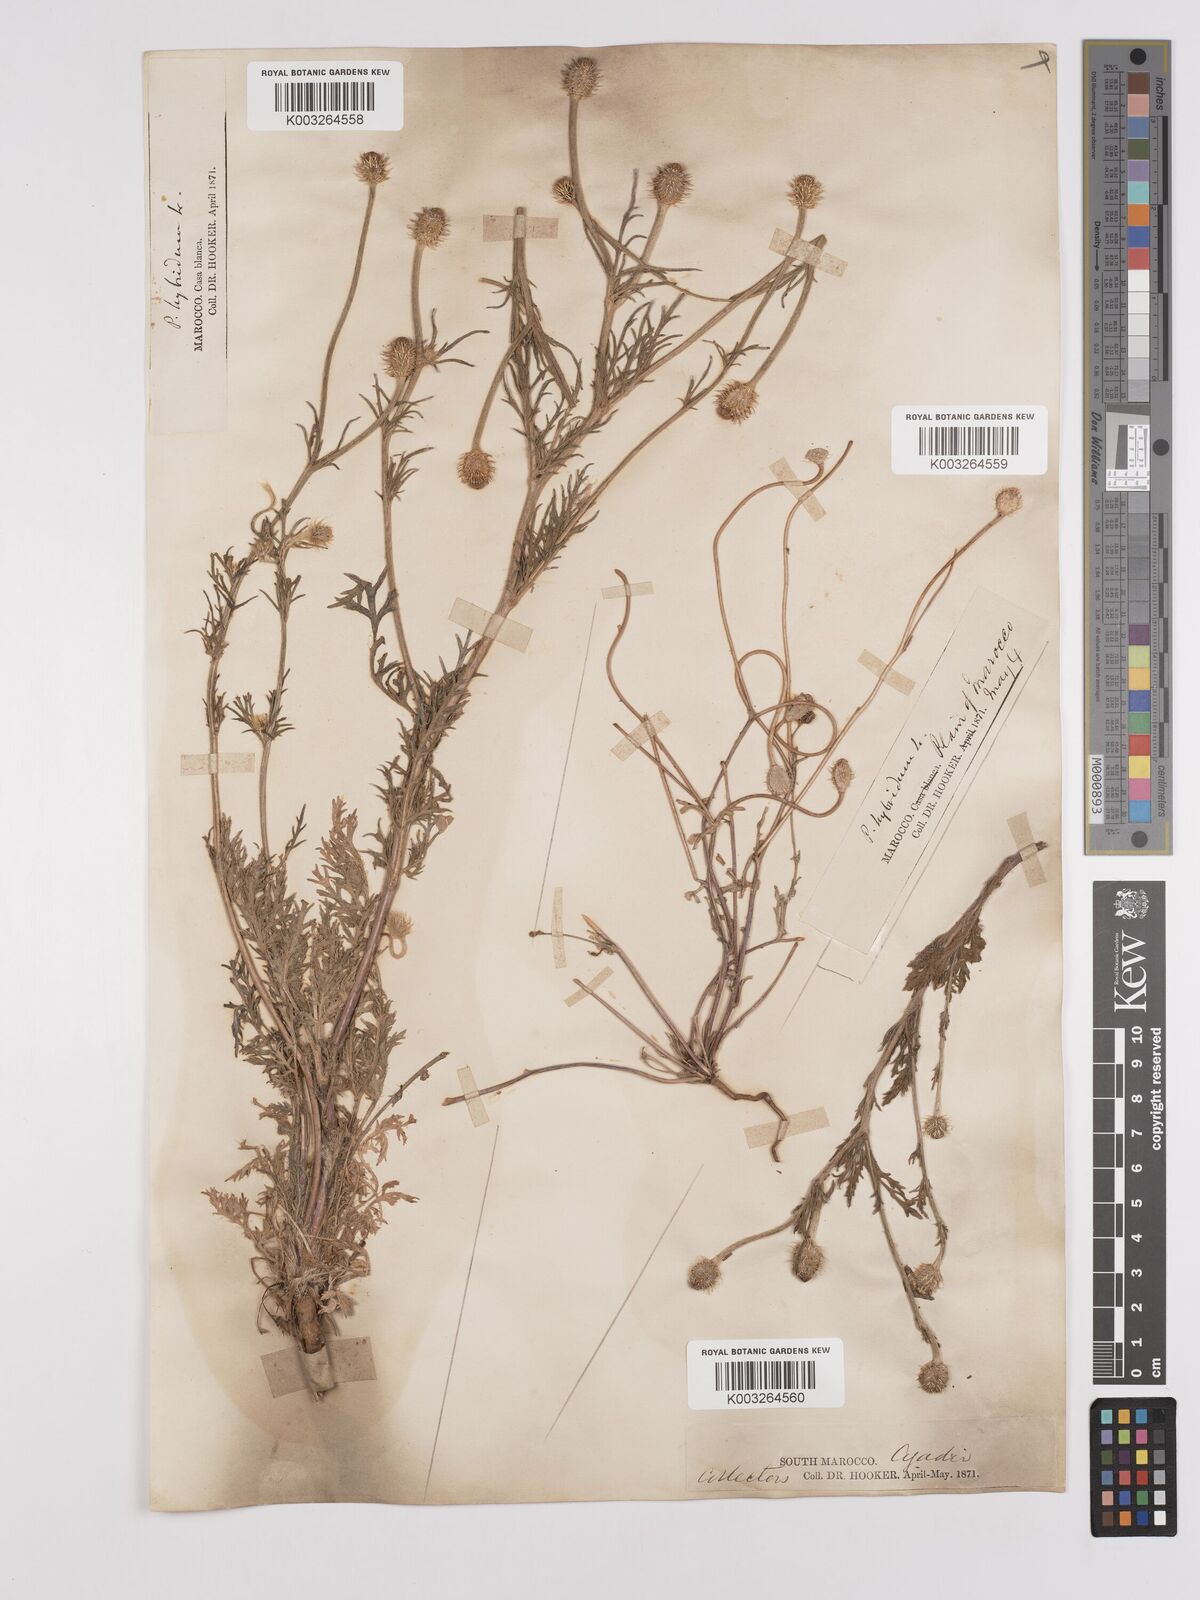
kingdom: Plantae
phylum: Tracheophyta
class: Magnoliopsida
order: Ranunculales
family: Papaveraceae
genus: Papaver
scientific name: Papaver
